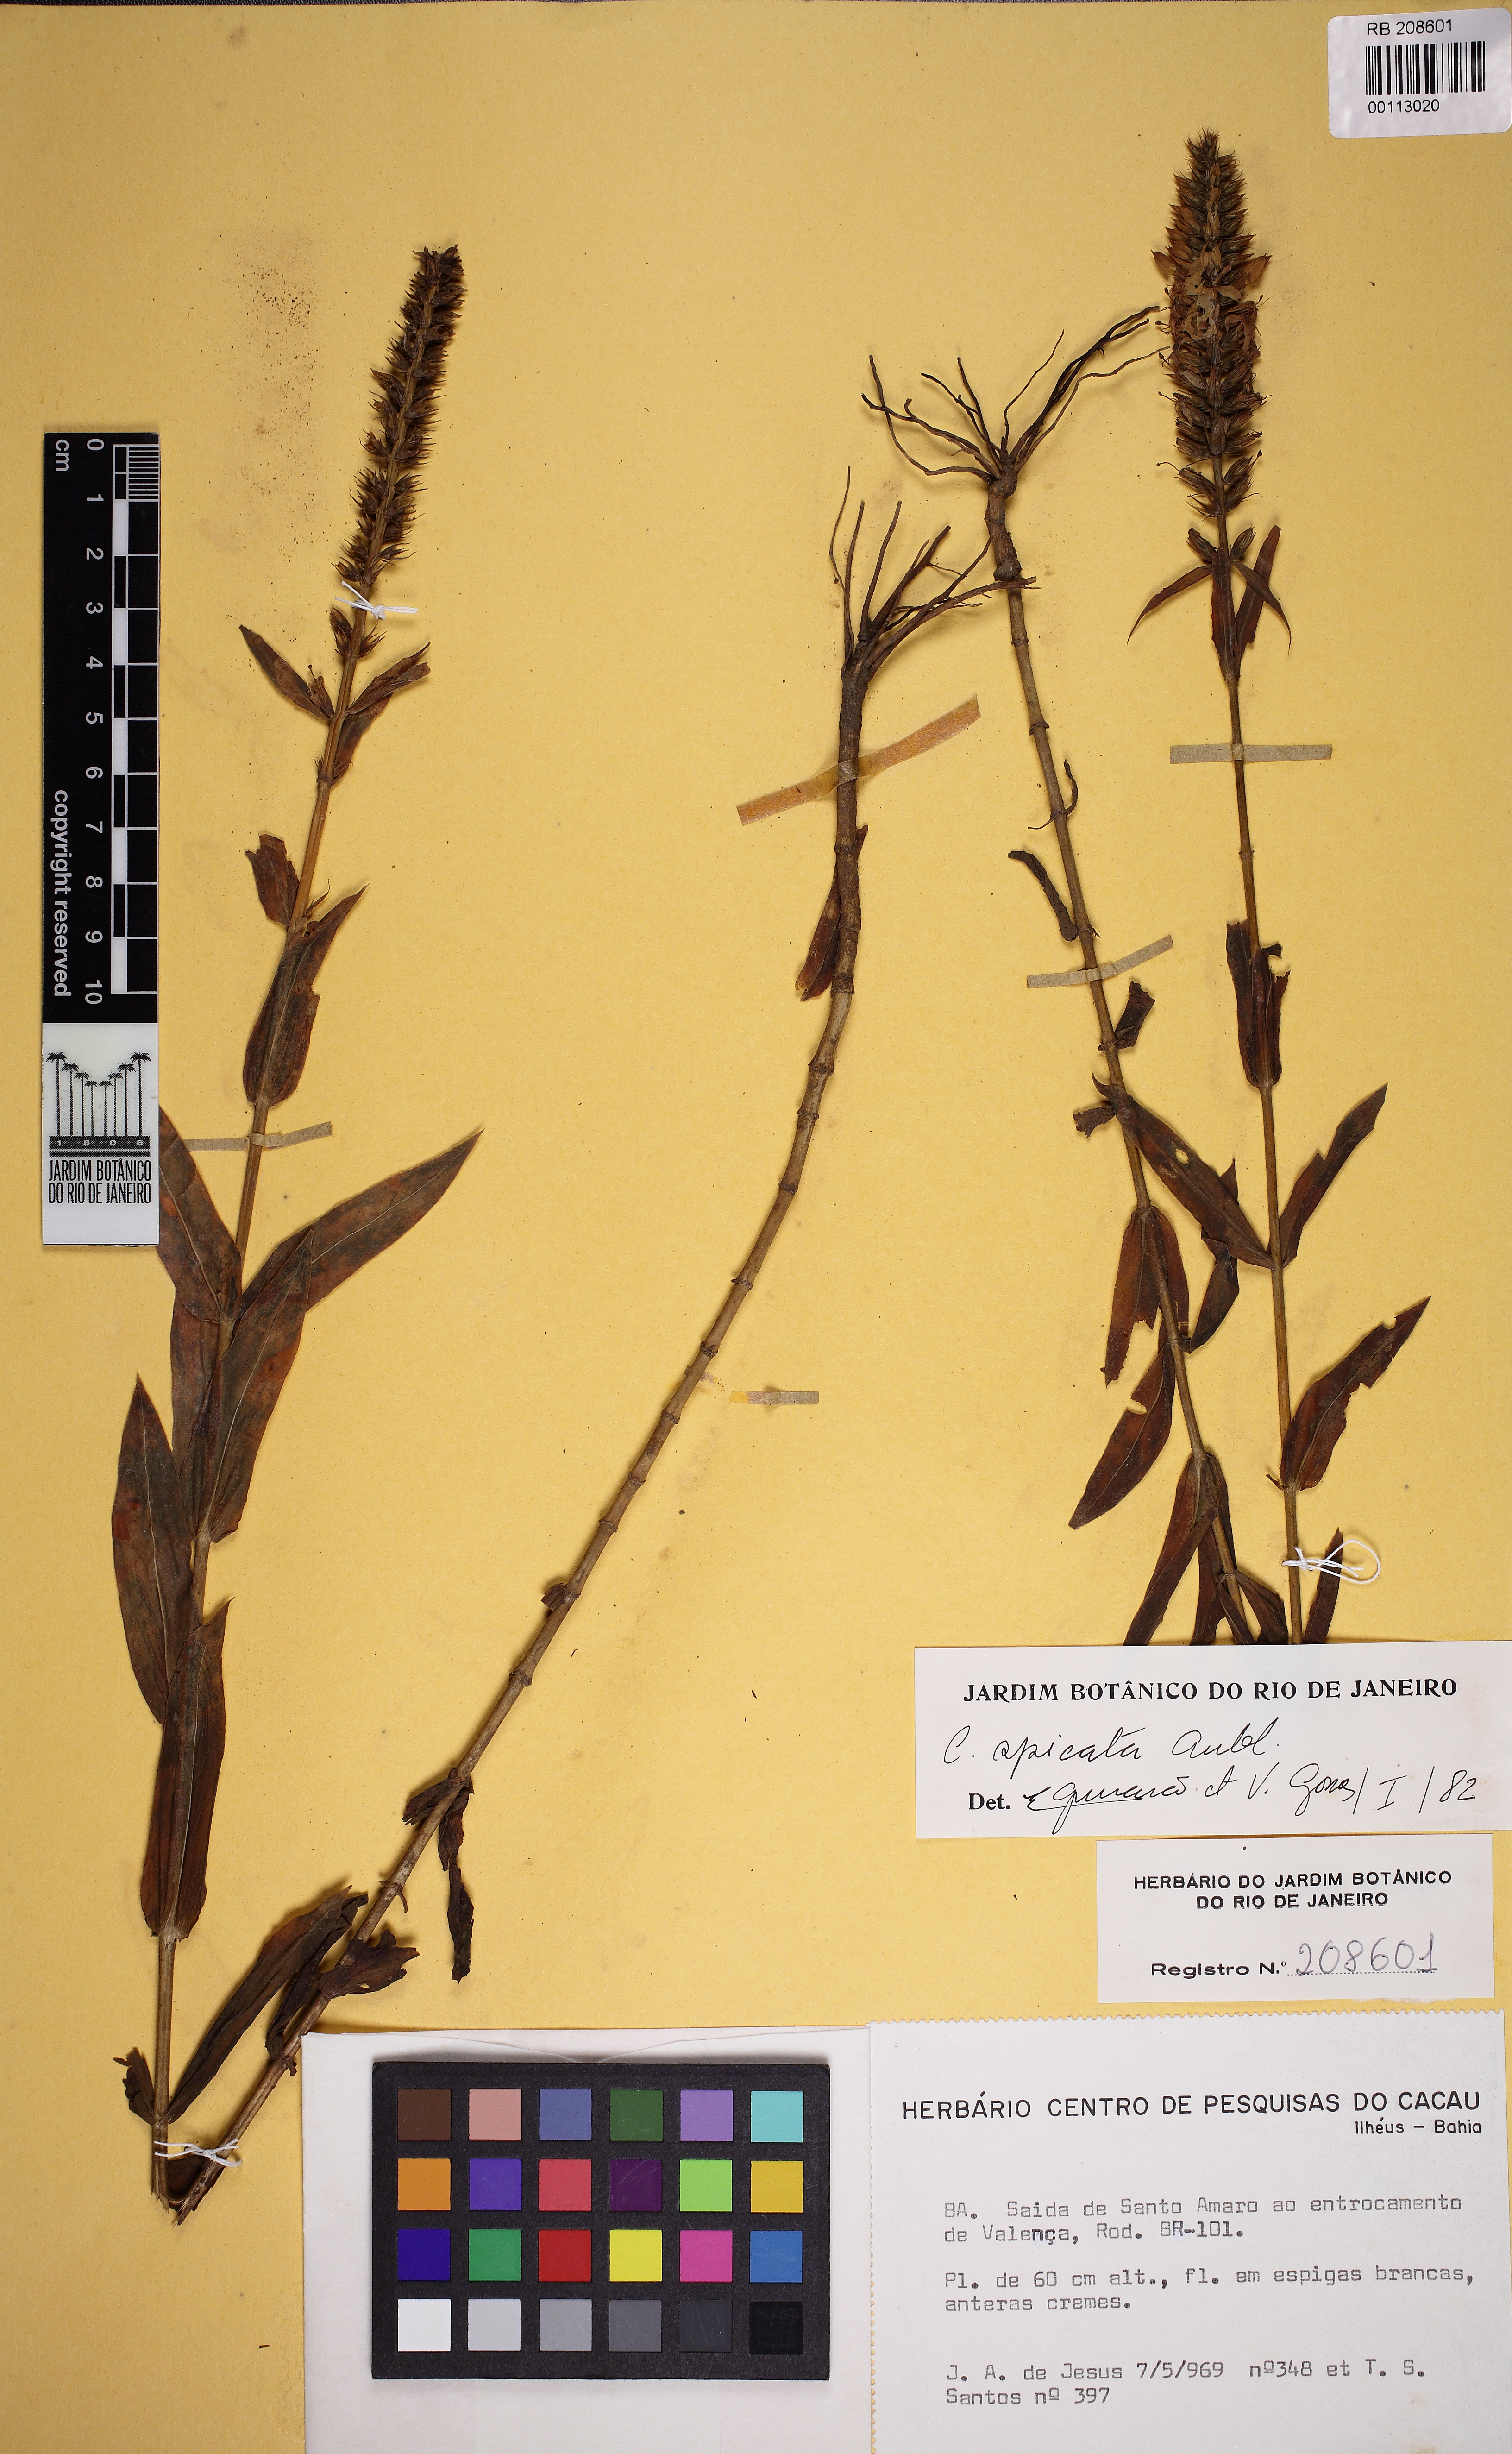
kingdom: Plantae
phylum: Tracheophyta
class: Magnoliopsida
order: Gentianales
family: Gentianaceae
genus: Coutoubea
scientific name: Coutoubea spicata
